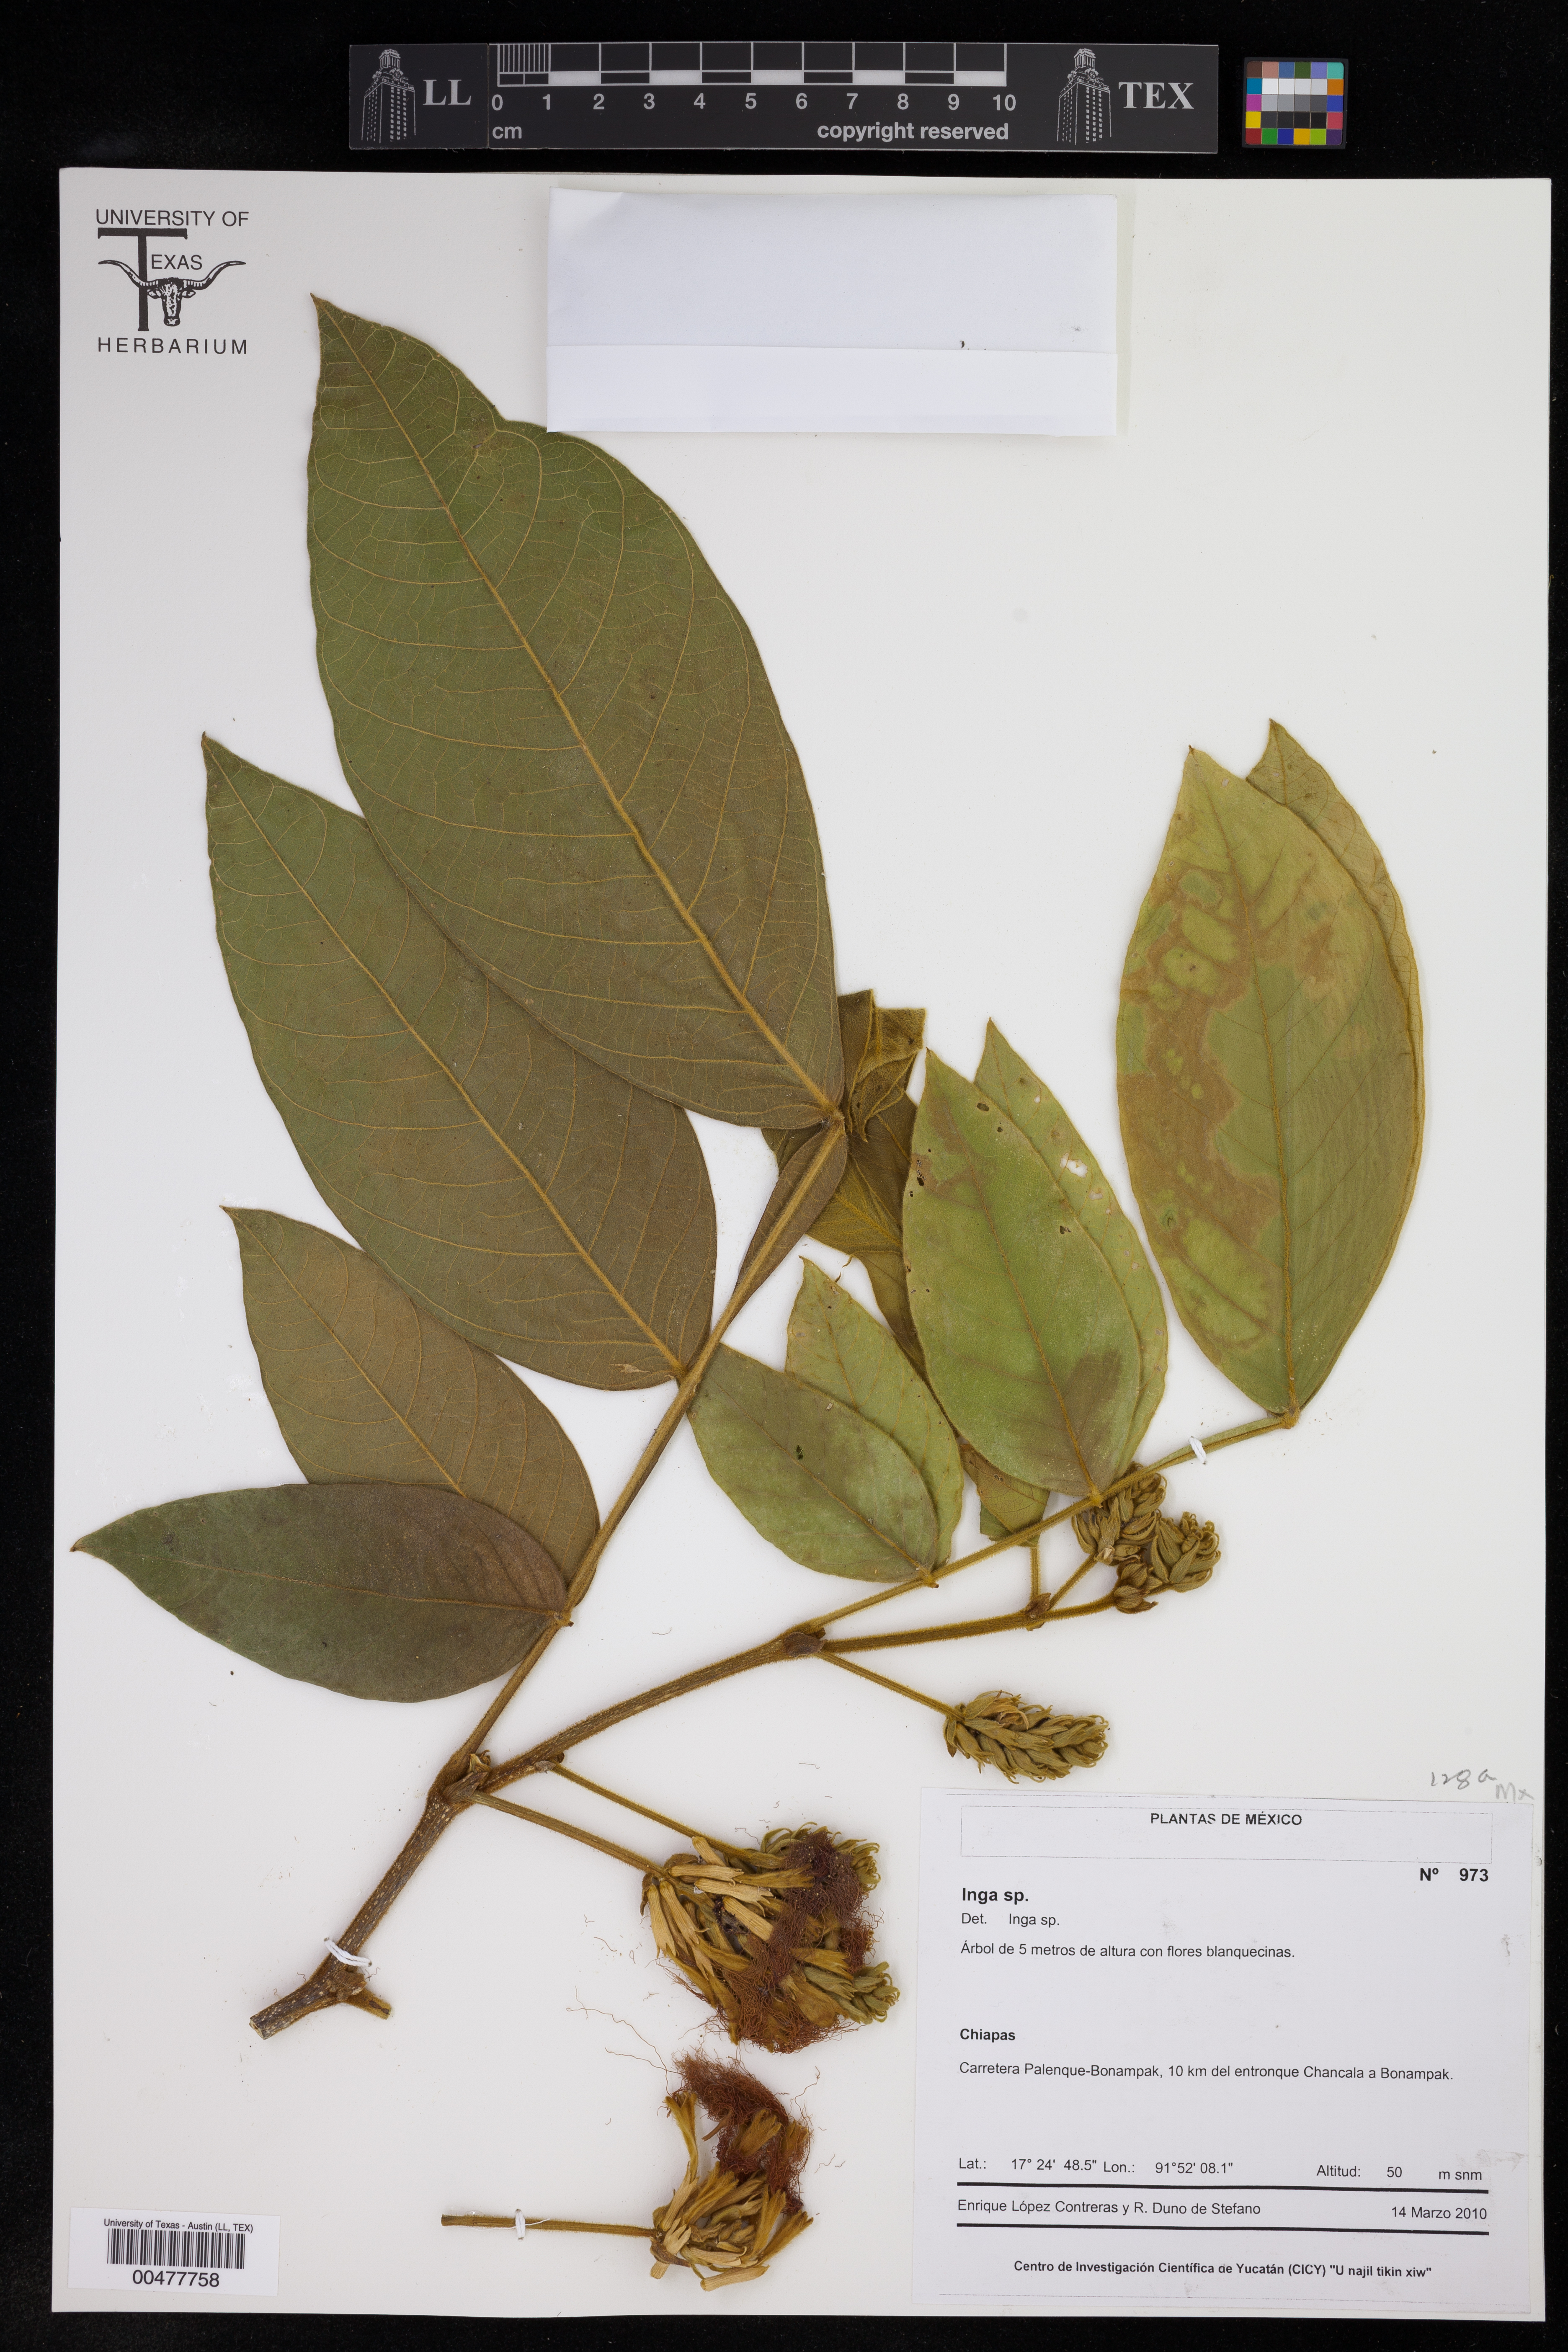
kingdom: Plantae
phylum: Tracheophyta
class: Magnoliopsida
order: Fabales
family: Fabaceae
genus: Inga
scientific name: Inga
